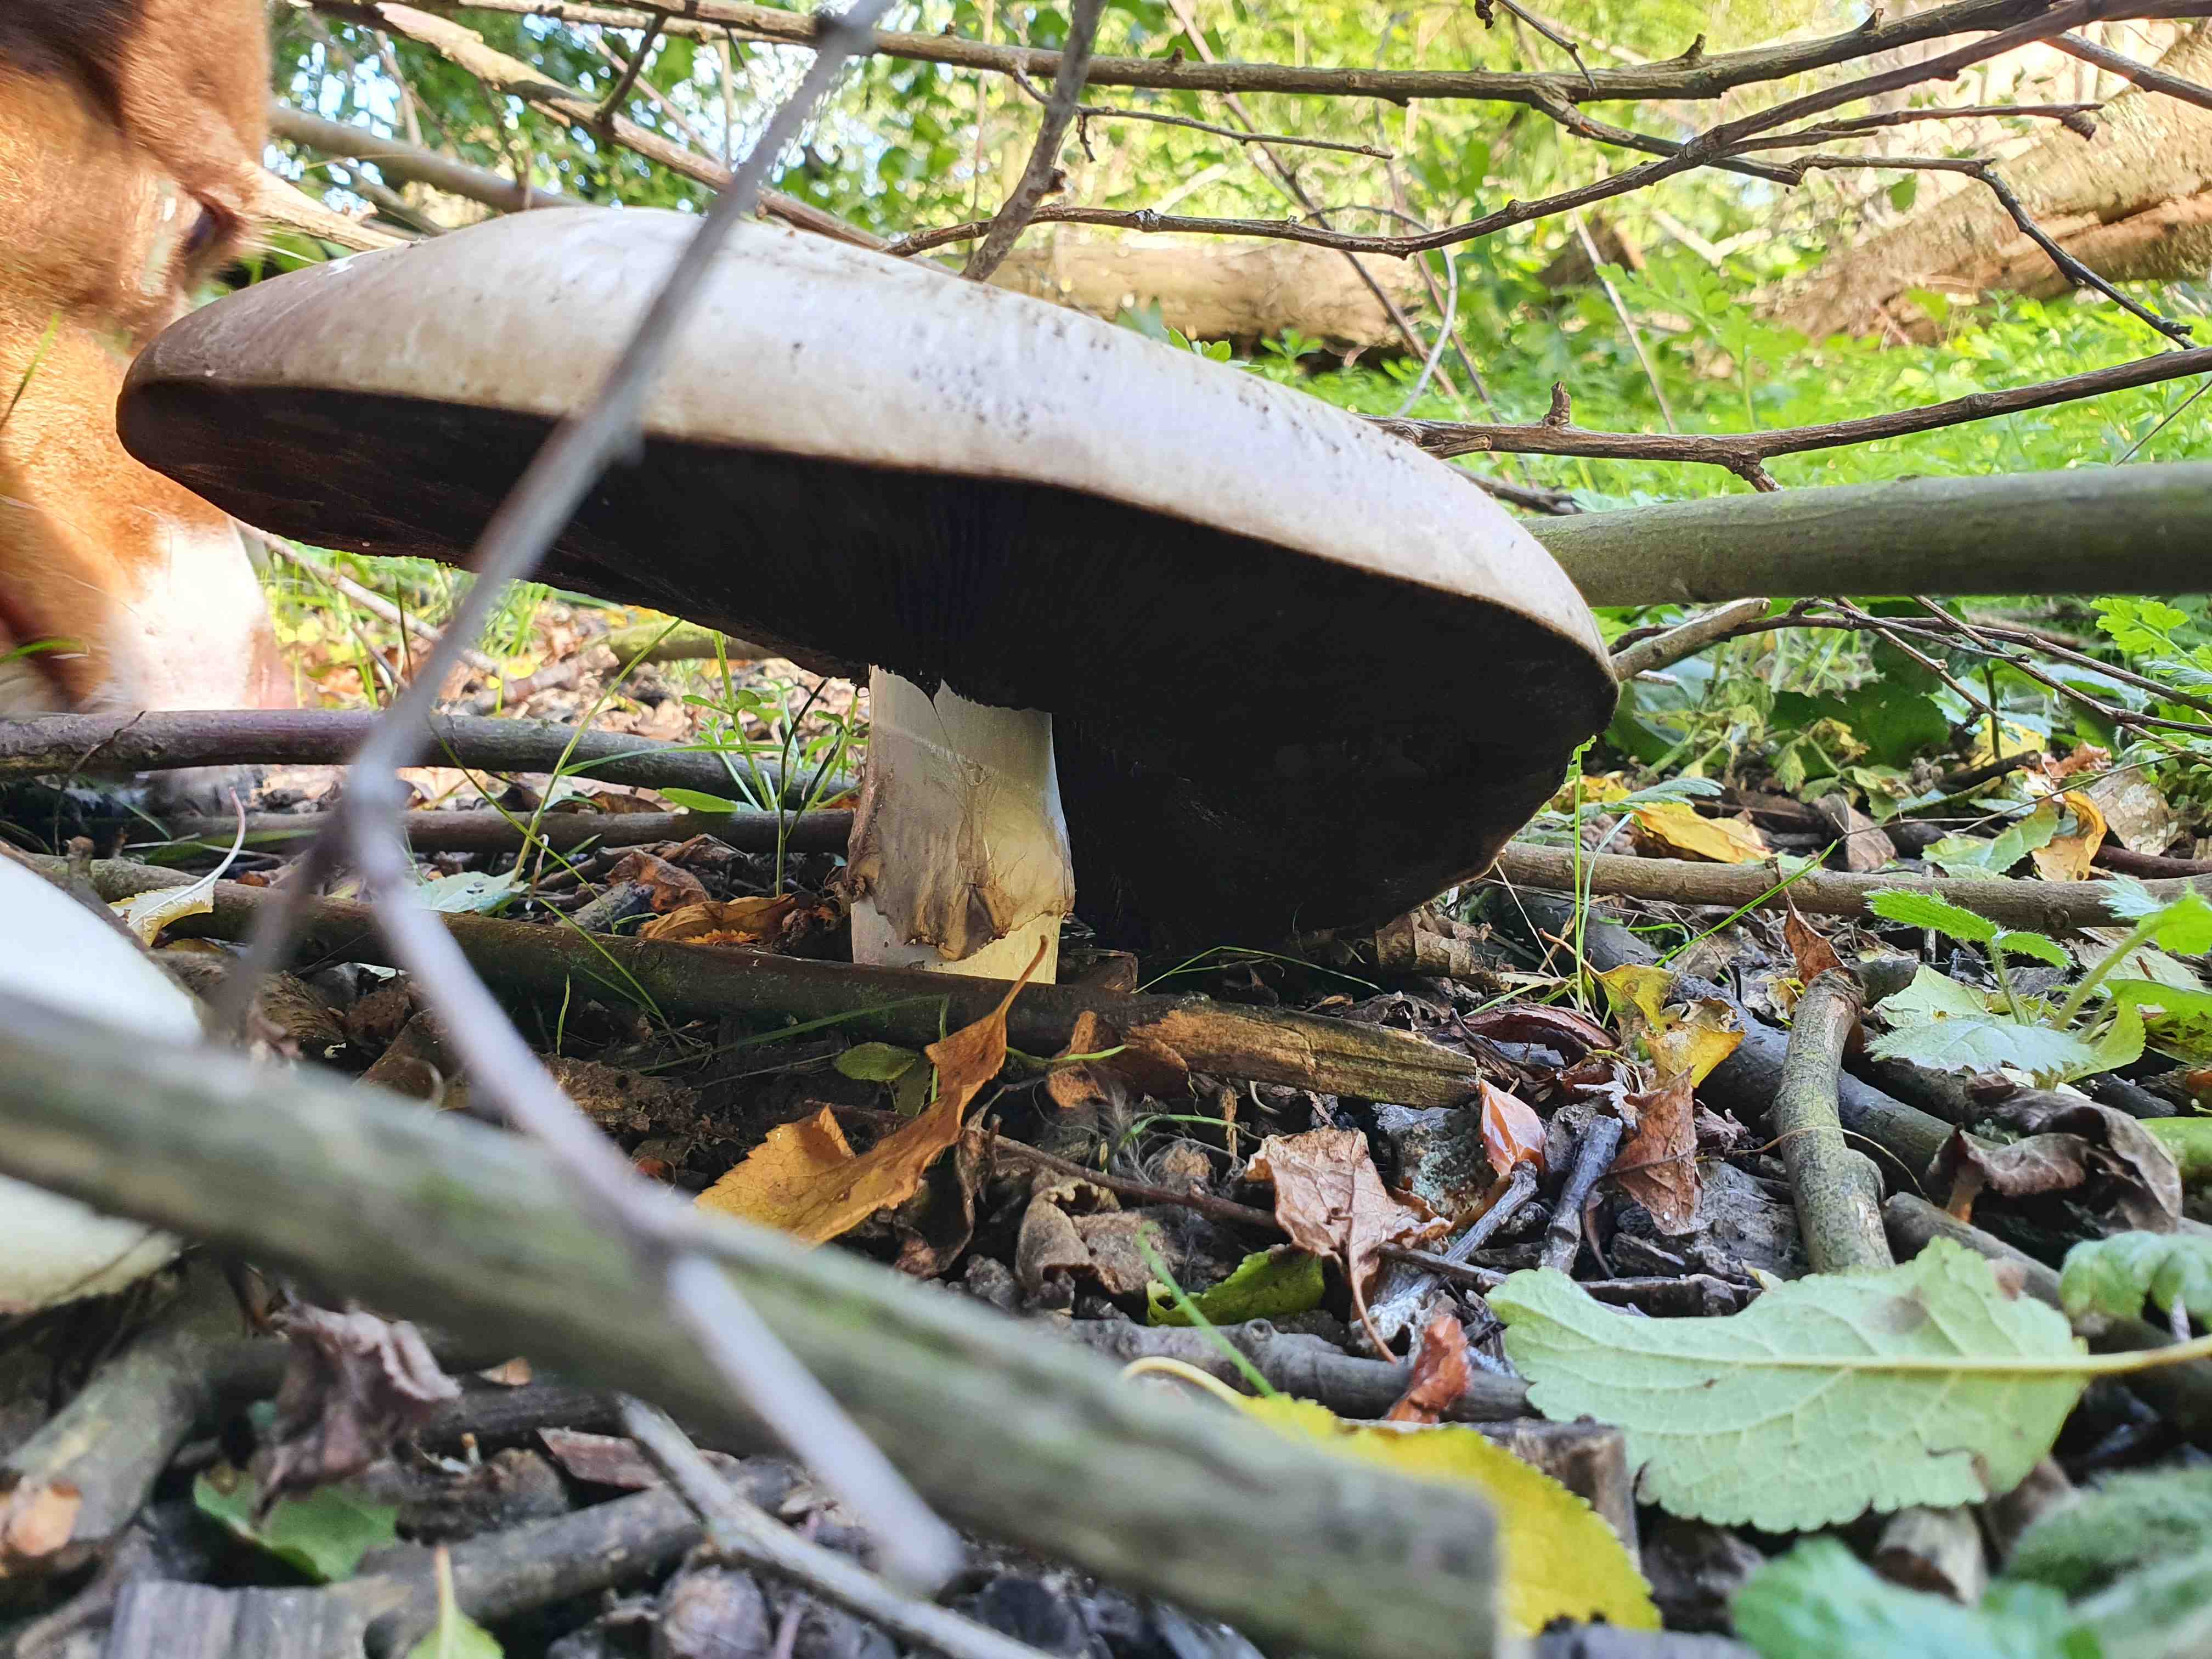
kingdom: Fungi
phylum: Basidiomycota
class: Agaricomycetes
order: Agaricales
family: Agaricaceae
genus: Agaricus
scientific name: Agaricus
